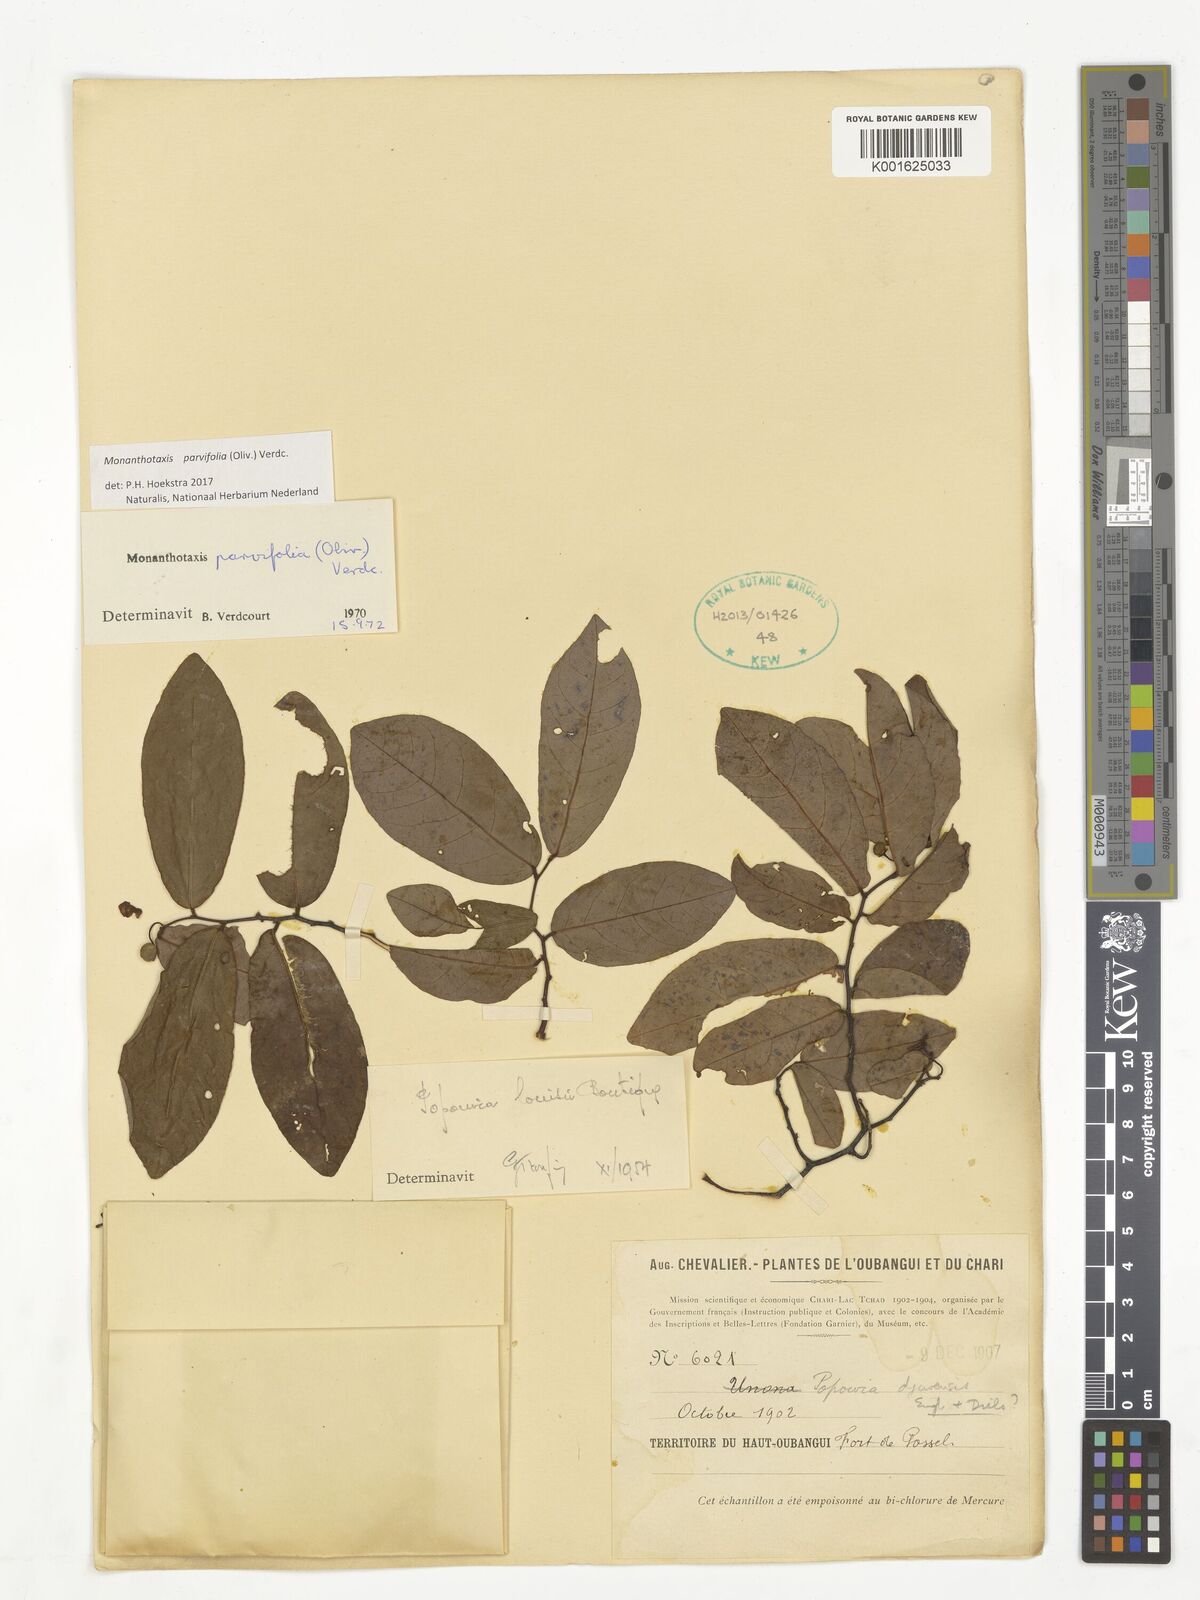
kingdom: Plantae
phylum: Tracheophyta
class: Magnoliopsida
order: Magnoliales
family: Annonaceae
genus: Monanthotaxis
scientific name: Monanthotaxis parvifolia
